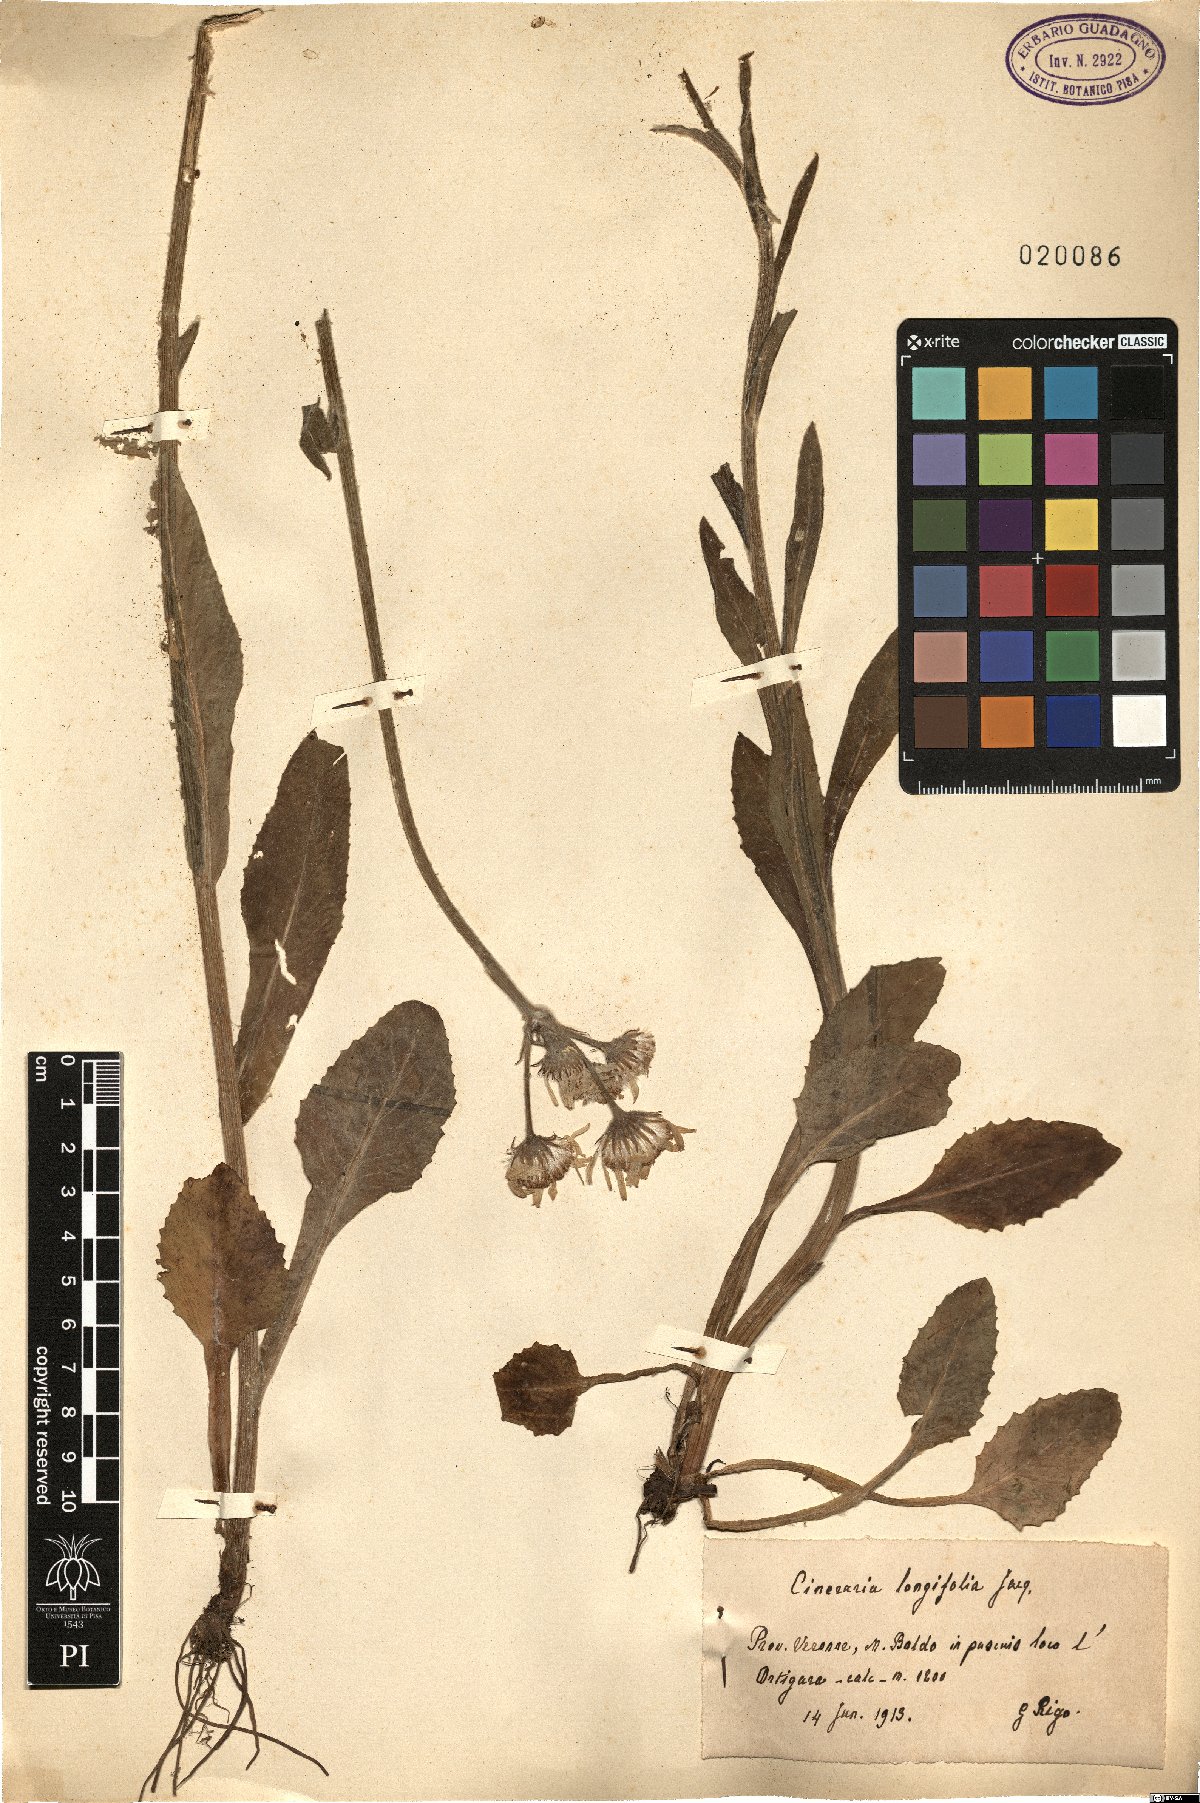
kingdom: Plantae
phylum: Tracheophyta
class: Magnoliopsida
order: Asterales
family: Asteraceae
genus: Tephroseris
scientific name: Tephroseris longifolia
